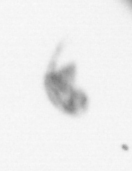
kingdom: Animalia
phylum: Arthropoda
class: Copepoda
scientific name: Copepoda
